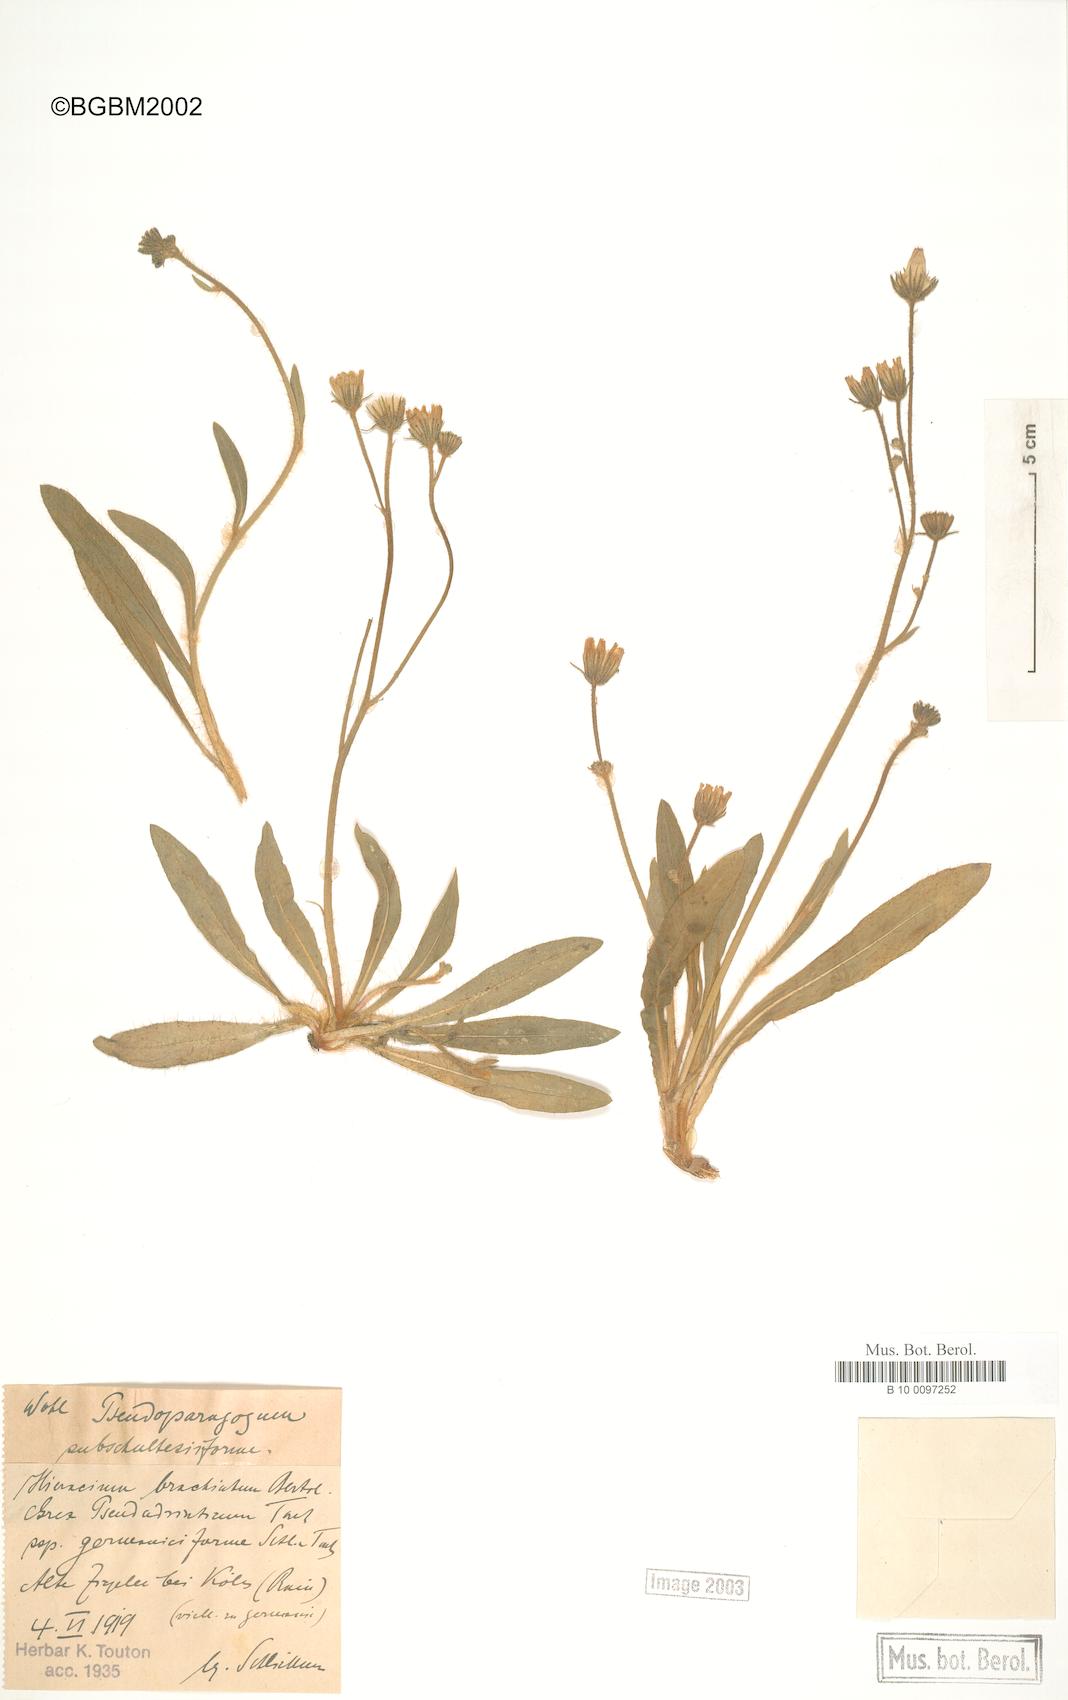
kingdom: Plantae
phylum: Tracheophyta
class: Magnoliopsida
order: Asterales
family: Asteraceae
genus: Pilosella
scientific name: Pilosella visianii
